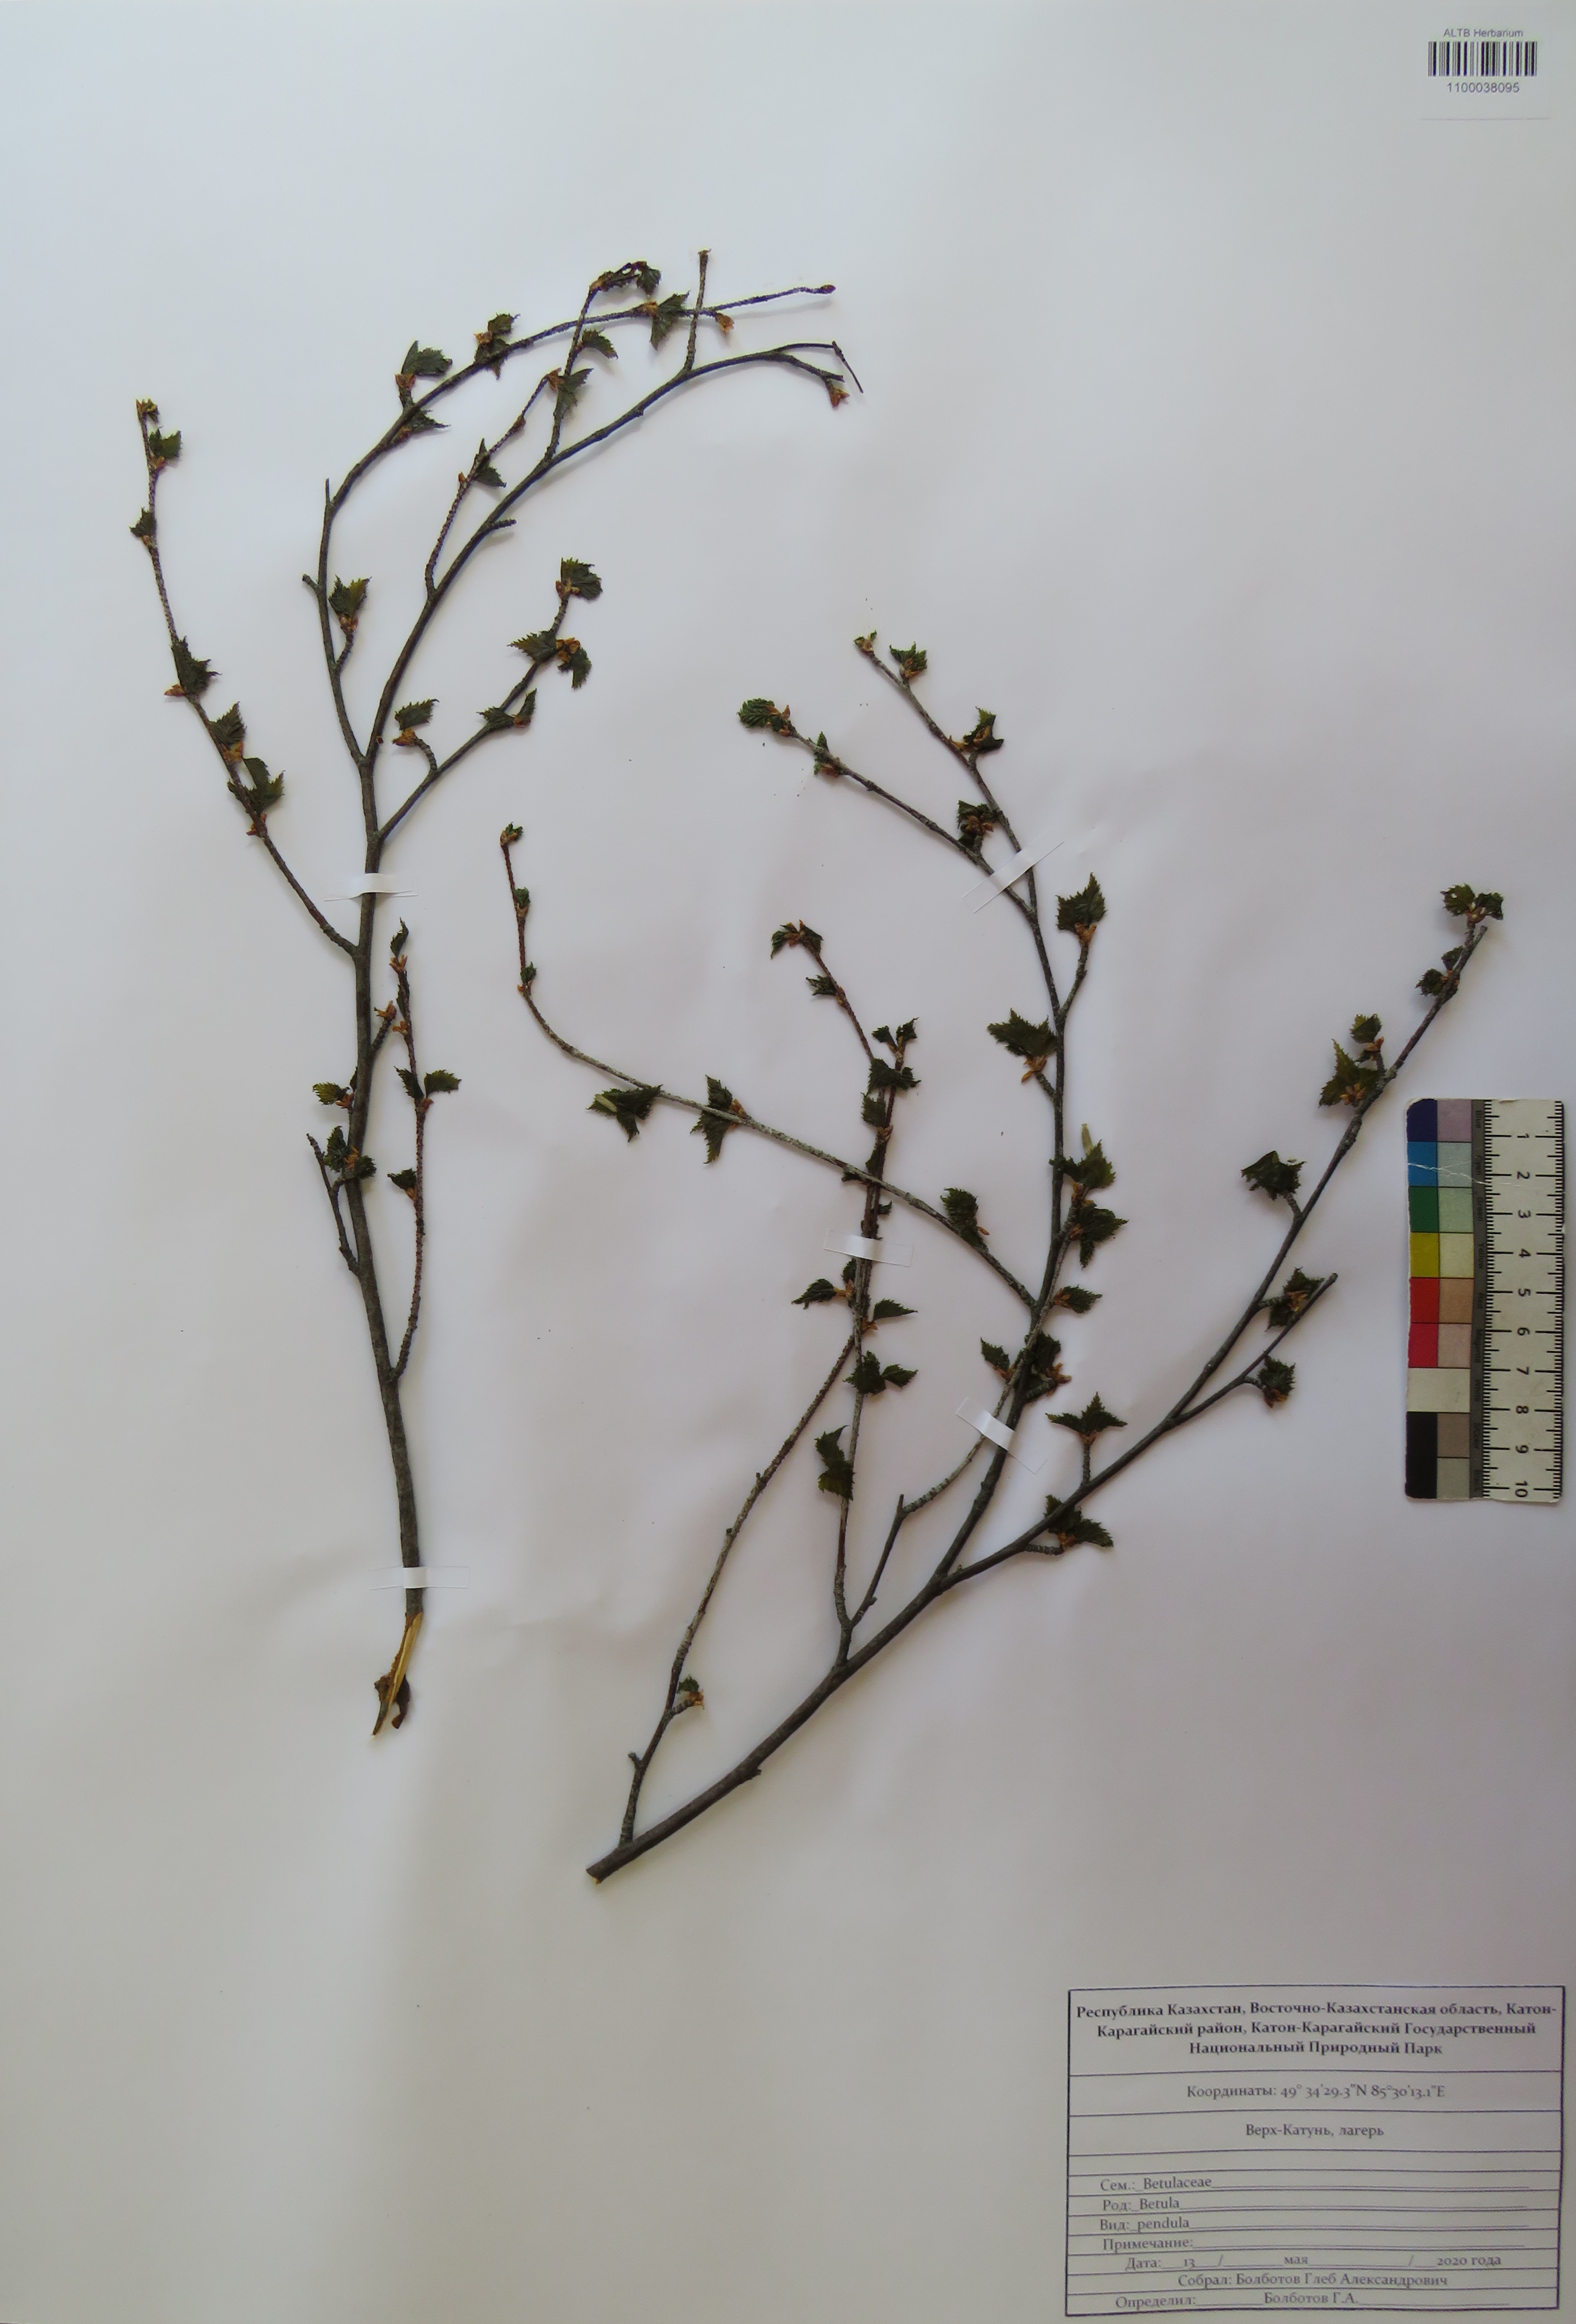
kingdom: Plantae
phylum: Tracheophyta
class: Magnoliopsida
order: Fagales
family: Betulaceae
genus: Betula
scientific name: Betula pendula
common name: Silver birch
